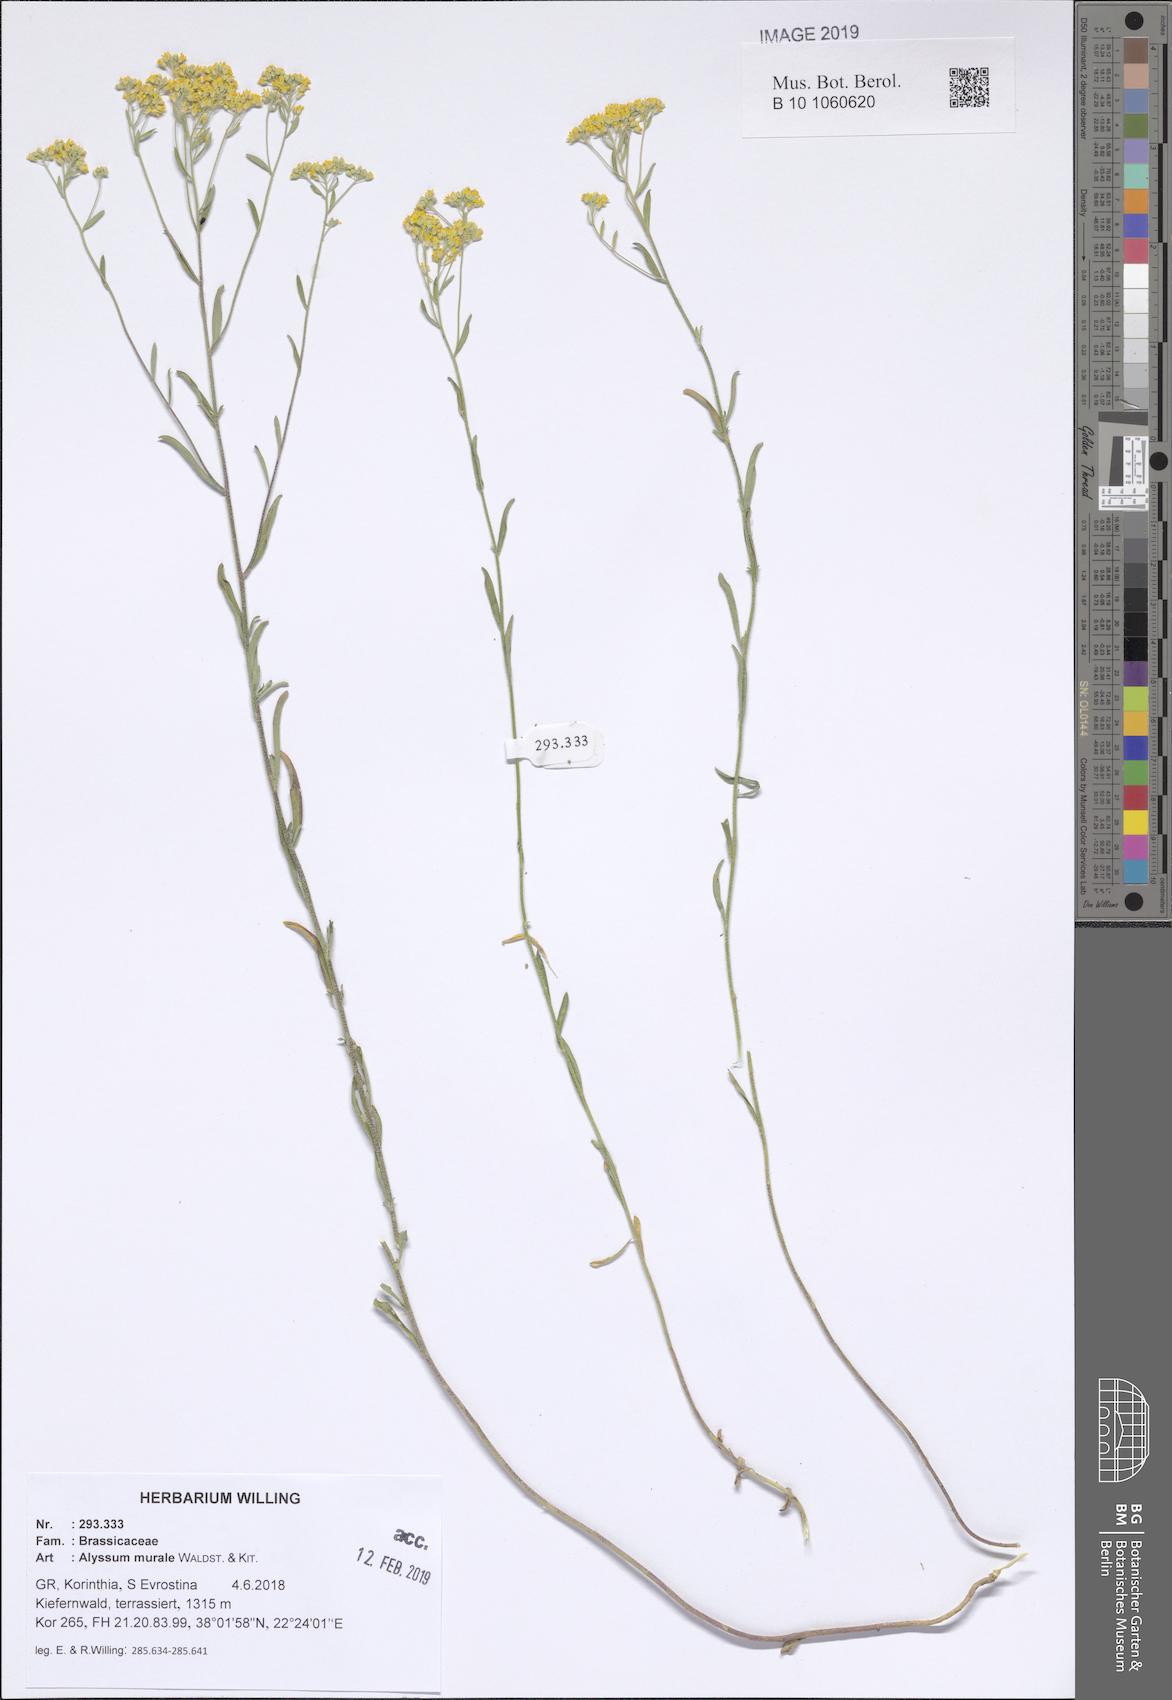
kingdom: Plantae
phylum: Tracheophyta
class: Magnoliopsida
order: Brassicales
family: Brassicaceae
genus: Odontarrhena
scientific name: Odontarrhena muralis
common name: Rock alyssum
